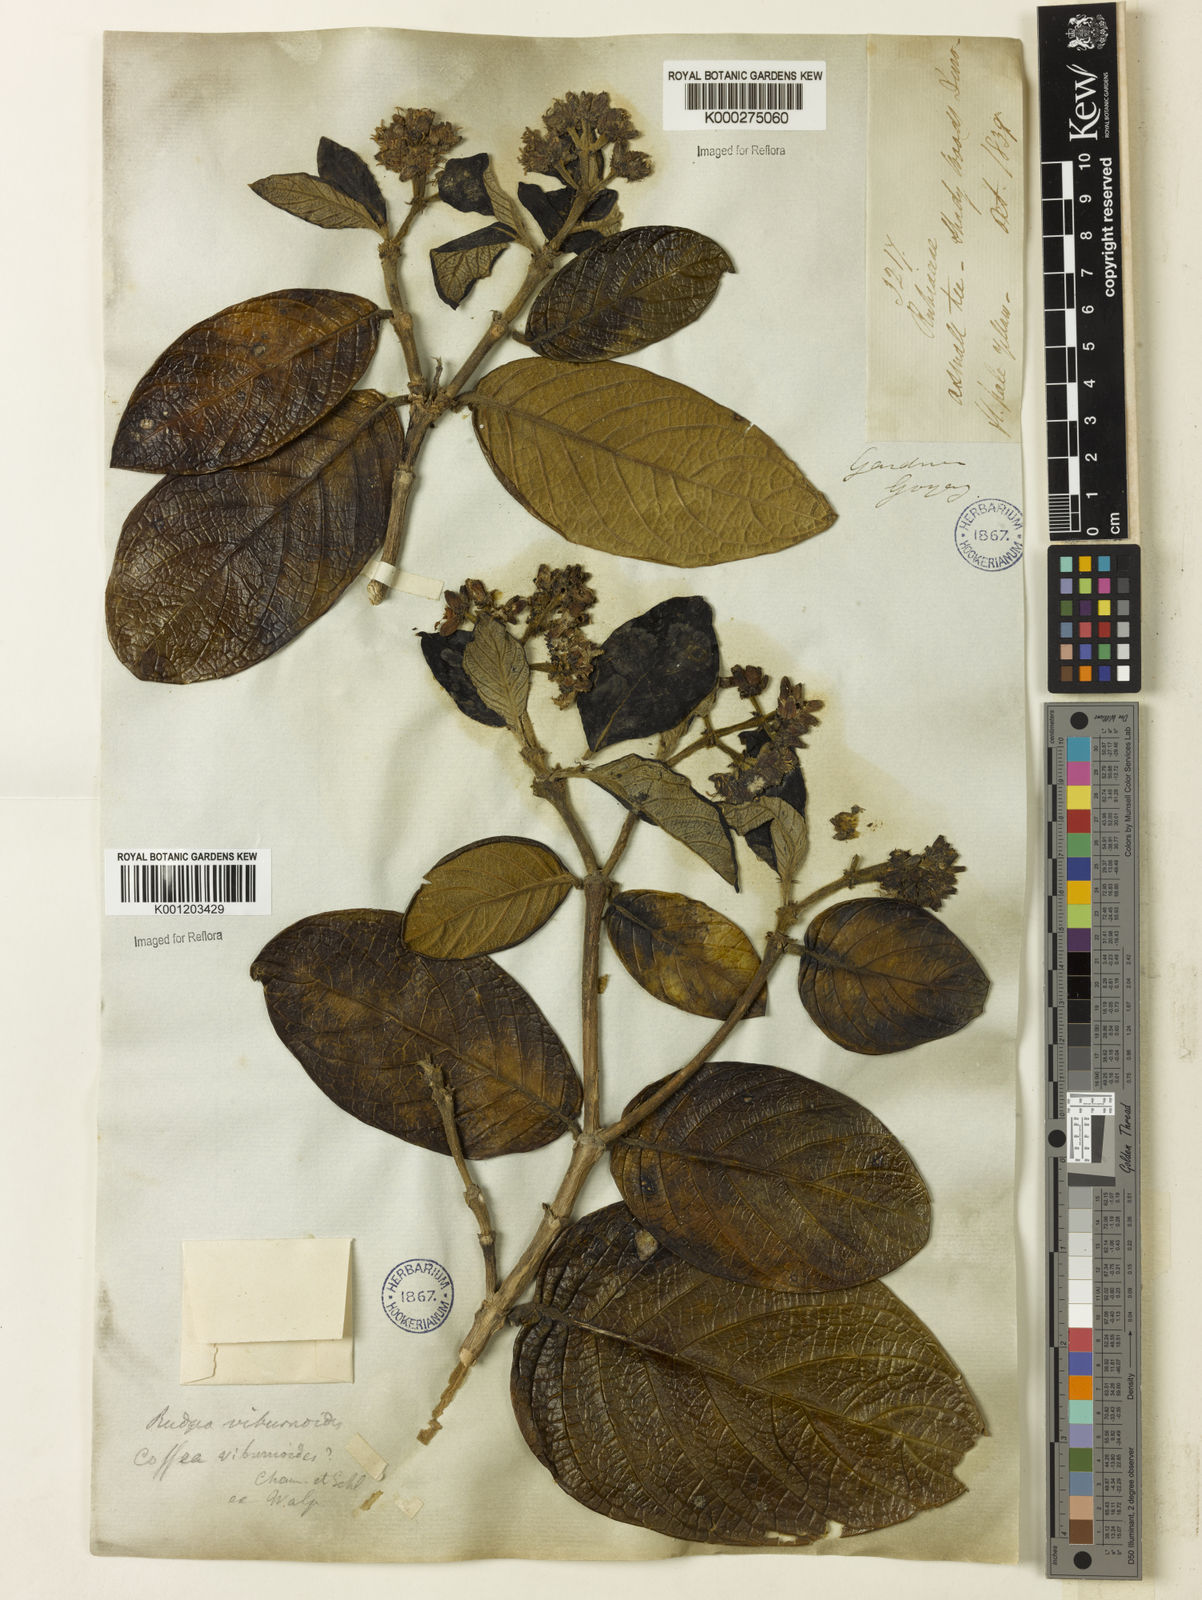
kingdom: Plantae
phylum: Tracheophyta
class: Magnoliopsida
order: Gentianales
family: Rubiaceae
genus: Rudgea
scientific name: Rudgea viburnoides
